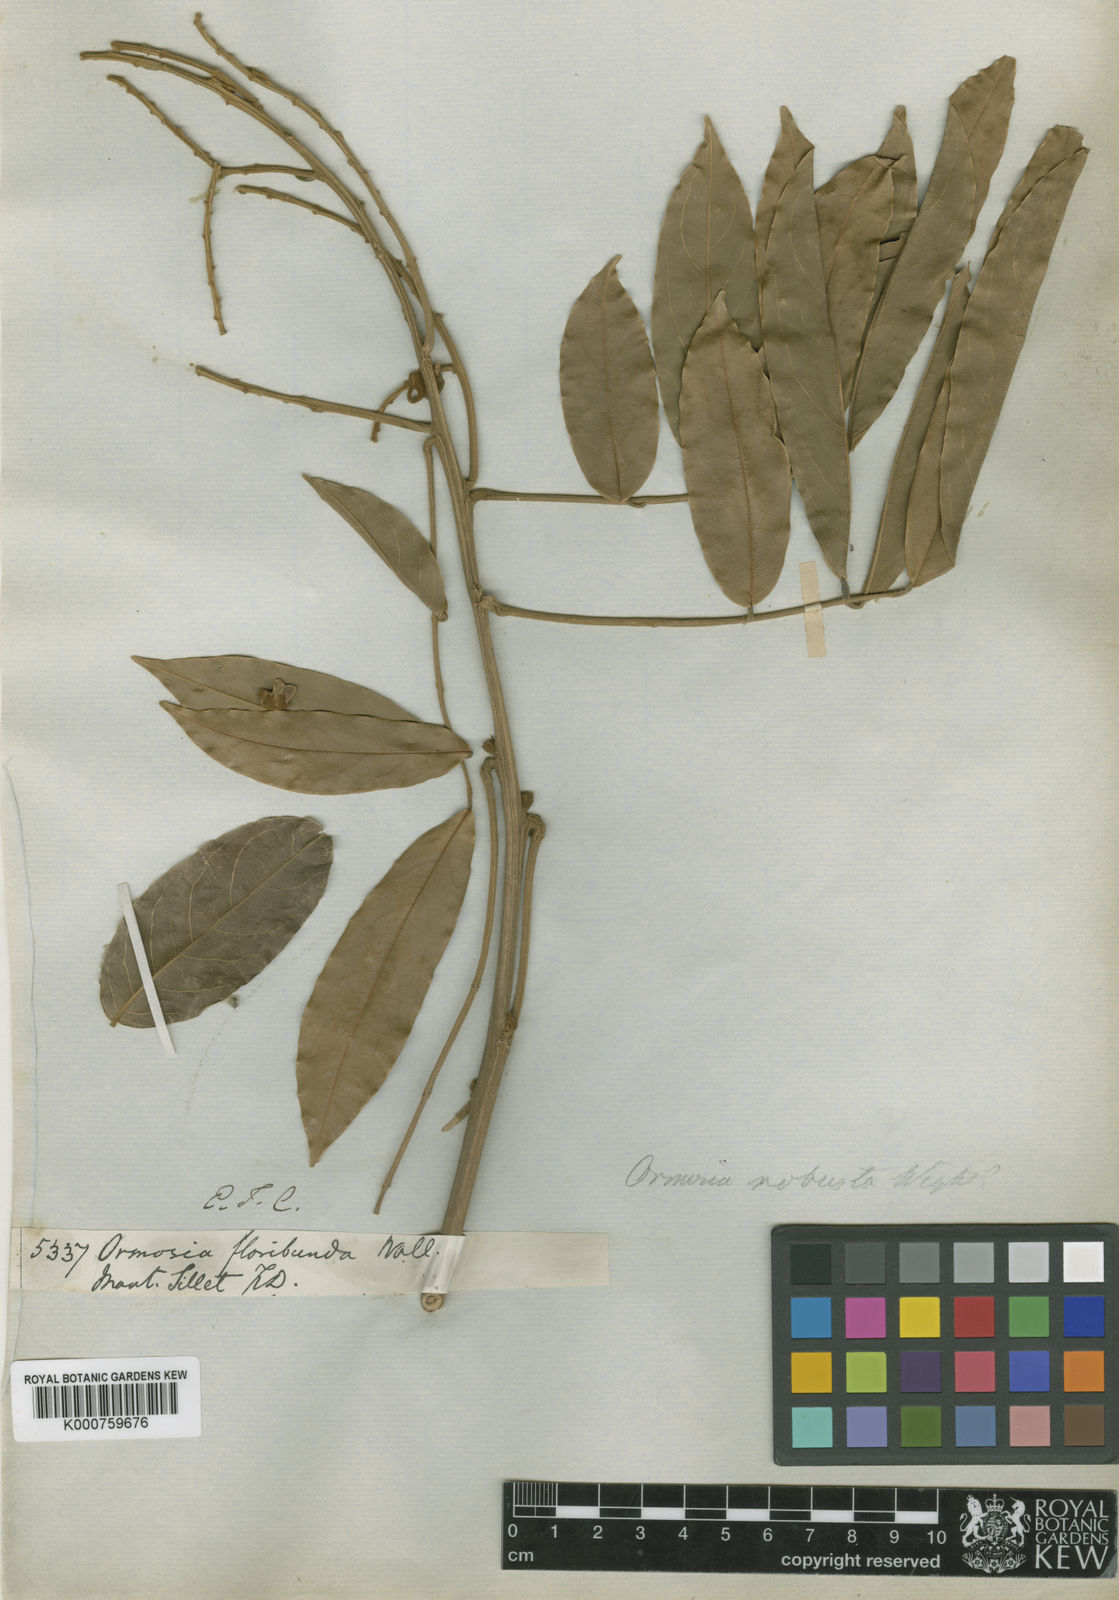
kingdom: Plantae
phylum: Tracheophyta
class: Magnoliopsida
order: Fabales
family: Fabaceae
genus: Ormosia
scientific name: Ormosia robusta
